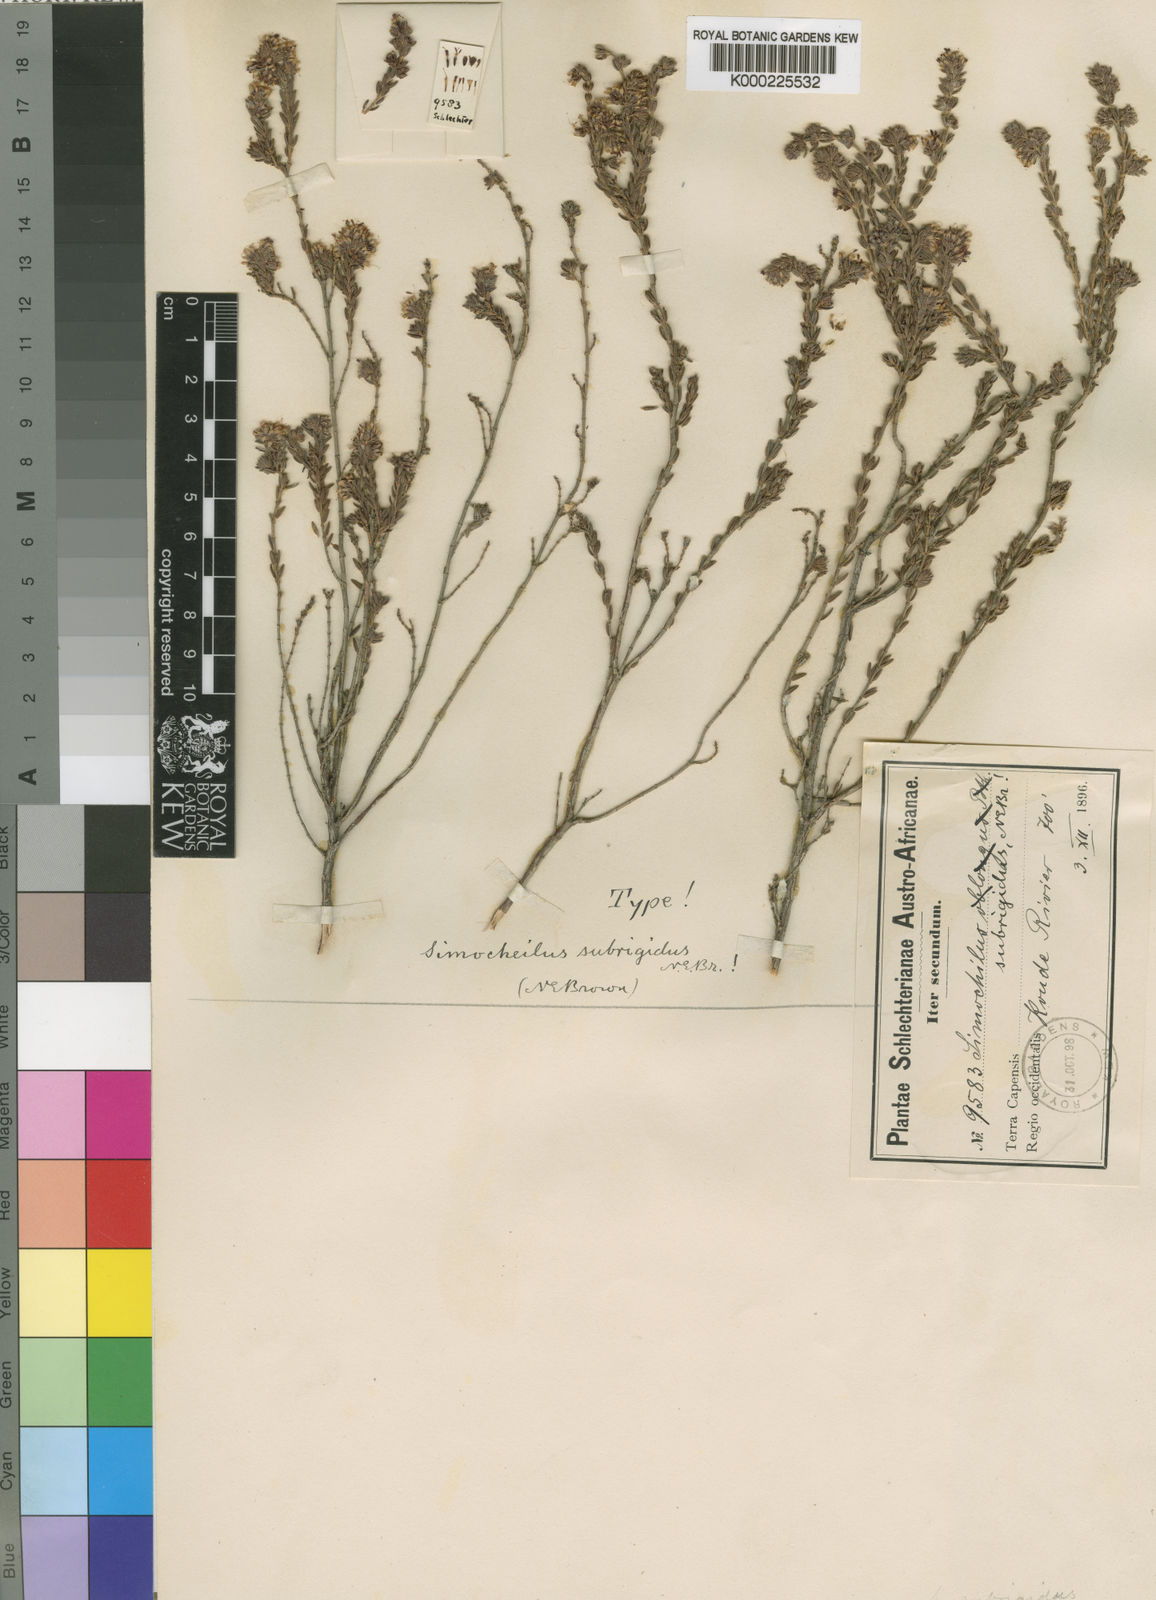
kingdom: Plantae
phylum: Tracheophyta
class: Magnoliopsida
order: Ericales
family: Ericaceae
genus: Erica
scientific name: Erica glabella
